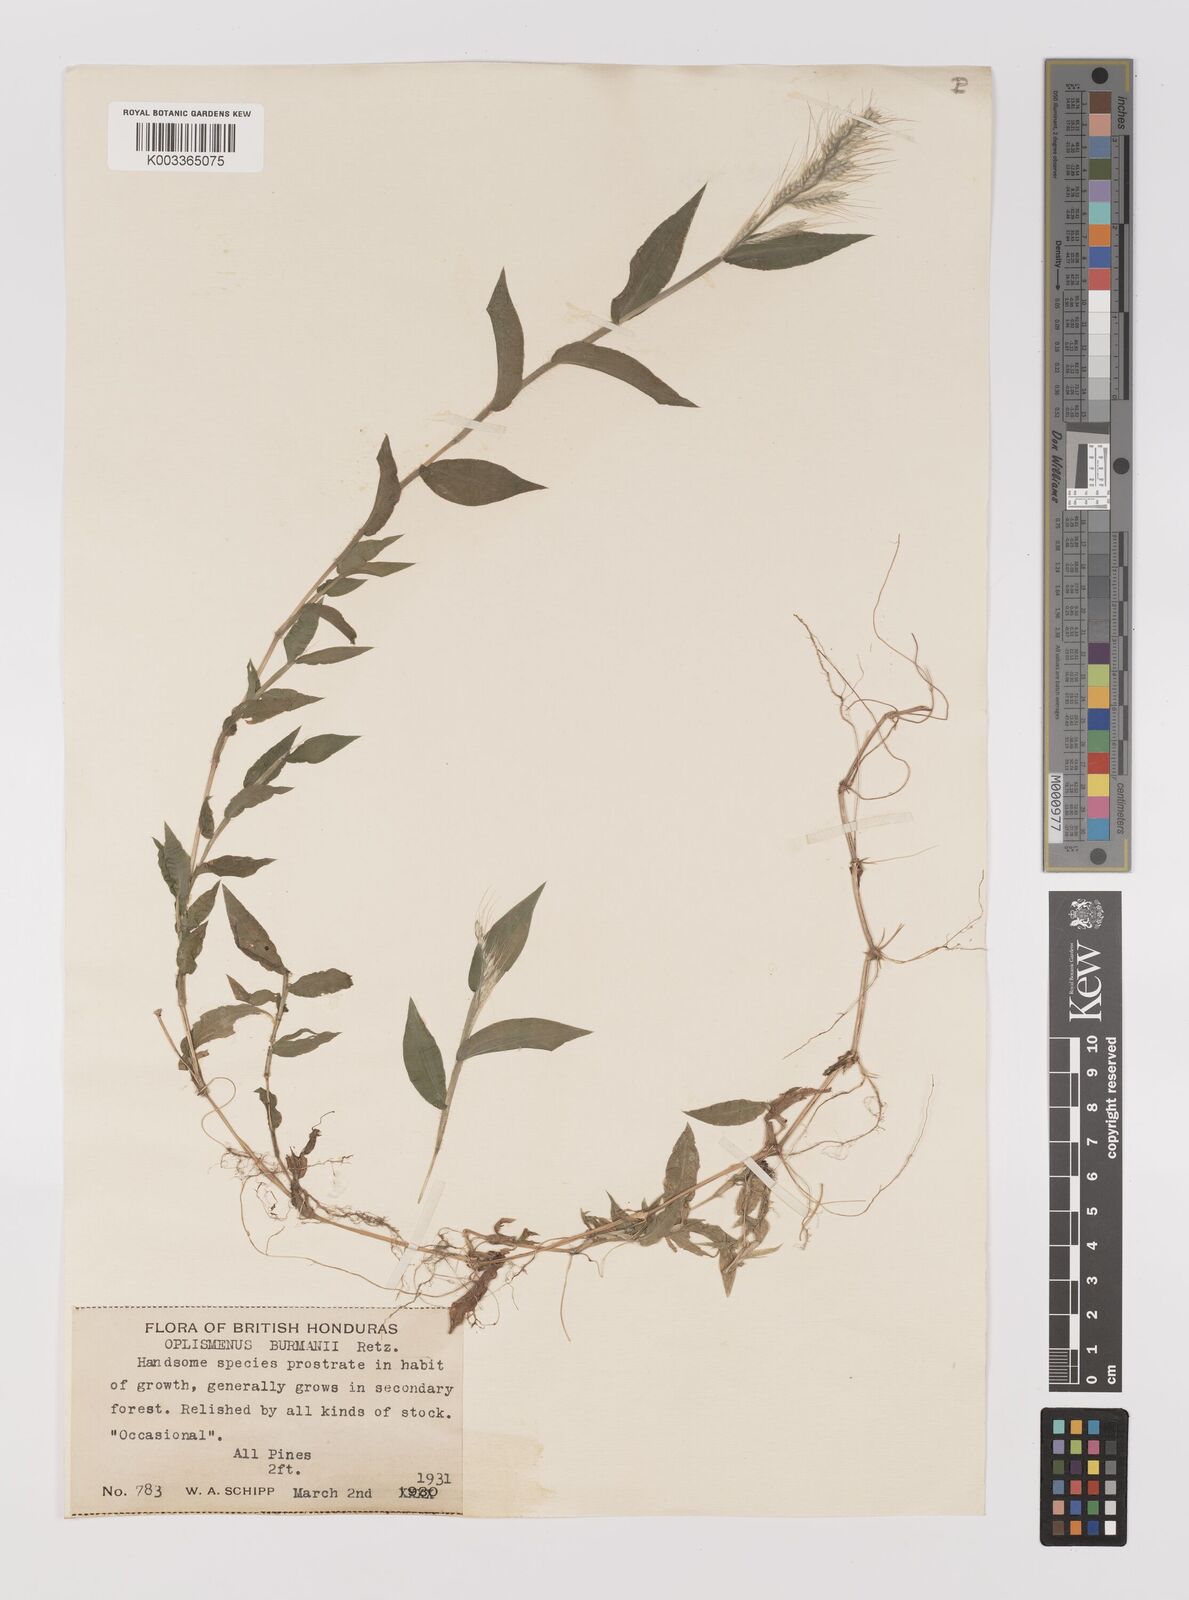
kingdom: Plantae
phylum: Tracheophyta
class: Liliopsida
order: Poales
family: Poaceae
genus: Oplismenus
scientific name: Oplismenus burmanni
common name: Burmann's basketgrass
